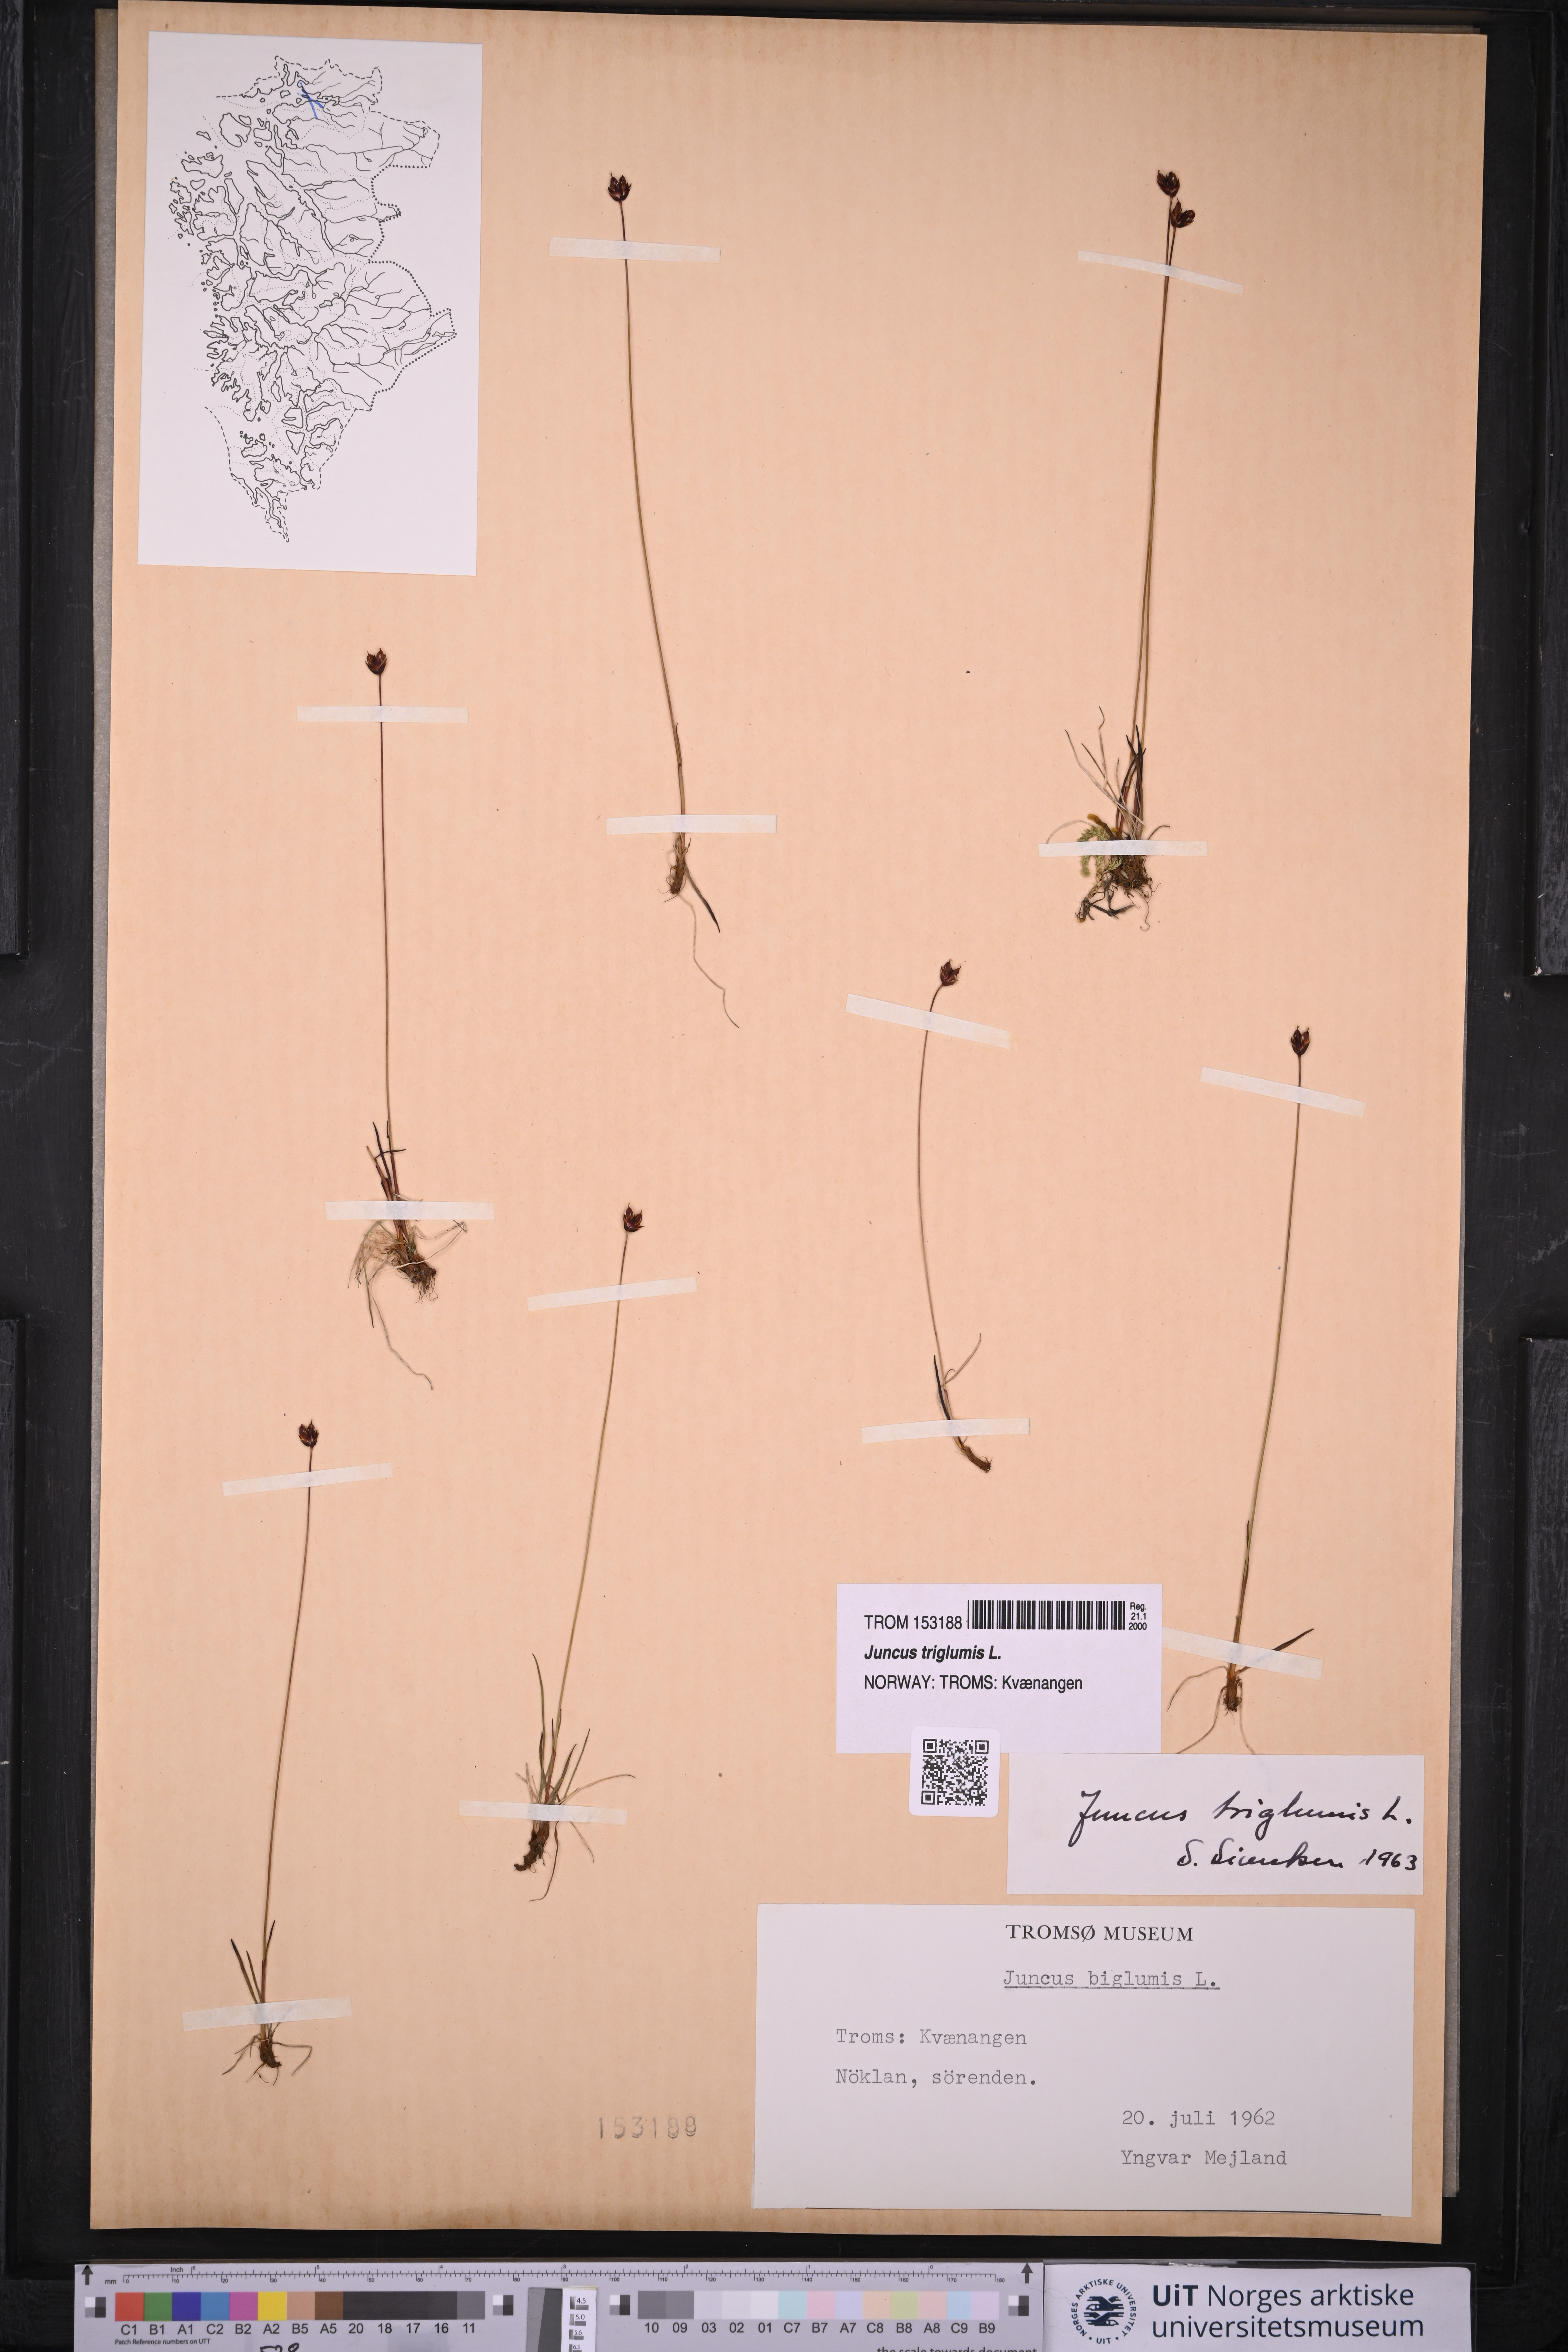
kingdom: Plantae
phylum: Tracheophyta
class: Liliopsida
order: Poales
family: Juncaceae
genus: Juncus
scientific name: Juncus triglumis
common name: Three-flowered rush
